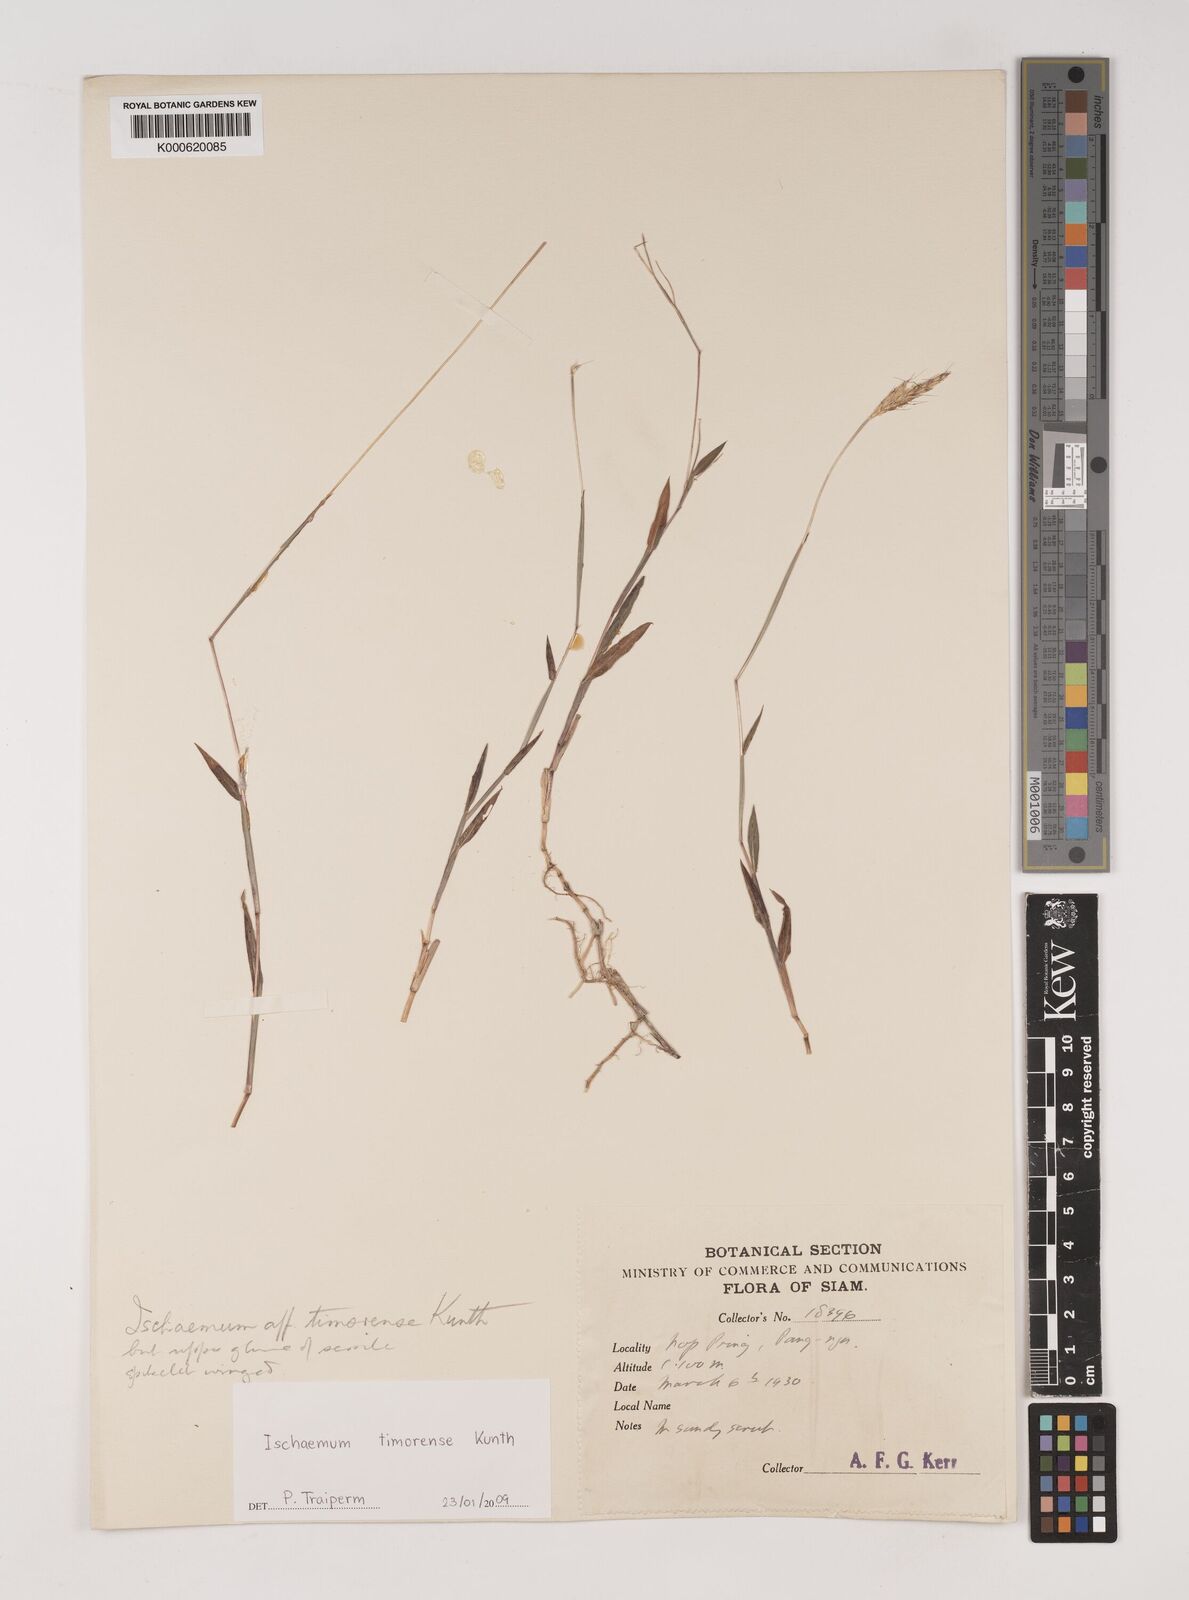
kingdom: Plantae
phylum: Tracheophyta
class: Liliopsida
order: Poales
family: Poaceae
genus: Ischaemum
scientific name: Ischaemum timorense
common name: Stalkleaf murainagrass
